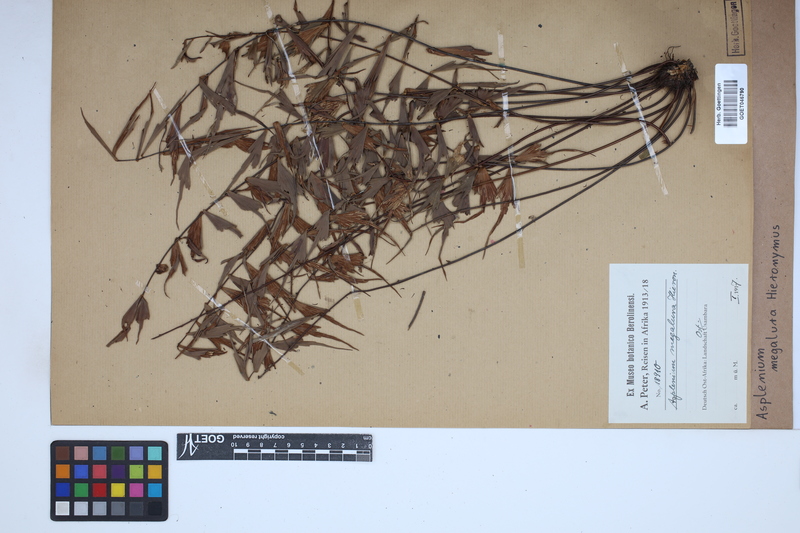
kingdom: Plantae
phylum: Tracheophyta
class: Polypodiopsida
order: Polypodiales
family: Aspleniaceae
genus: Asplenium
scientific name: Asplenium megalura
